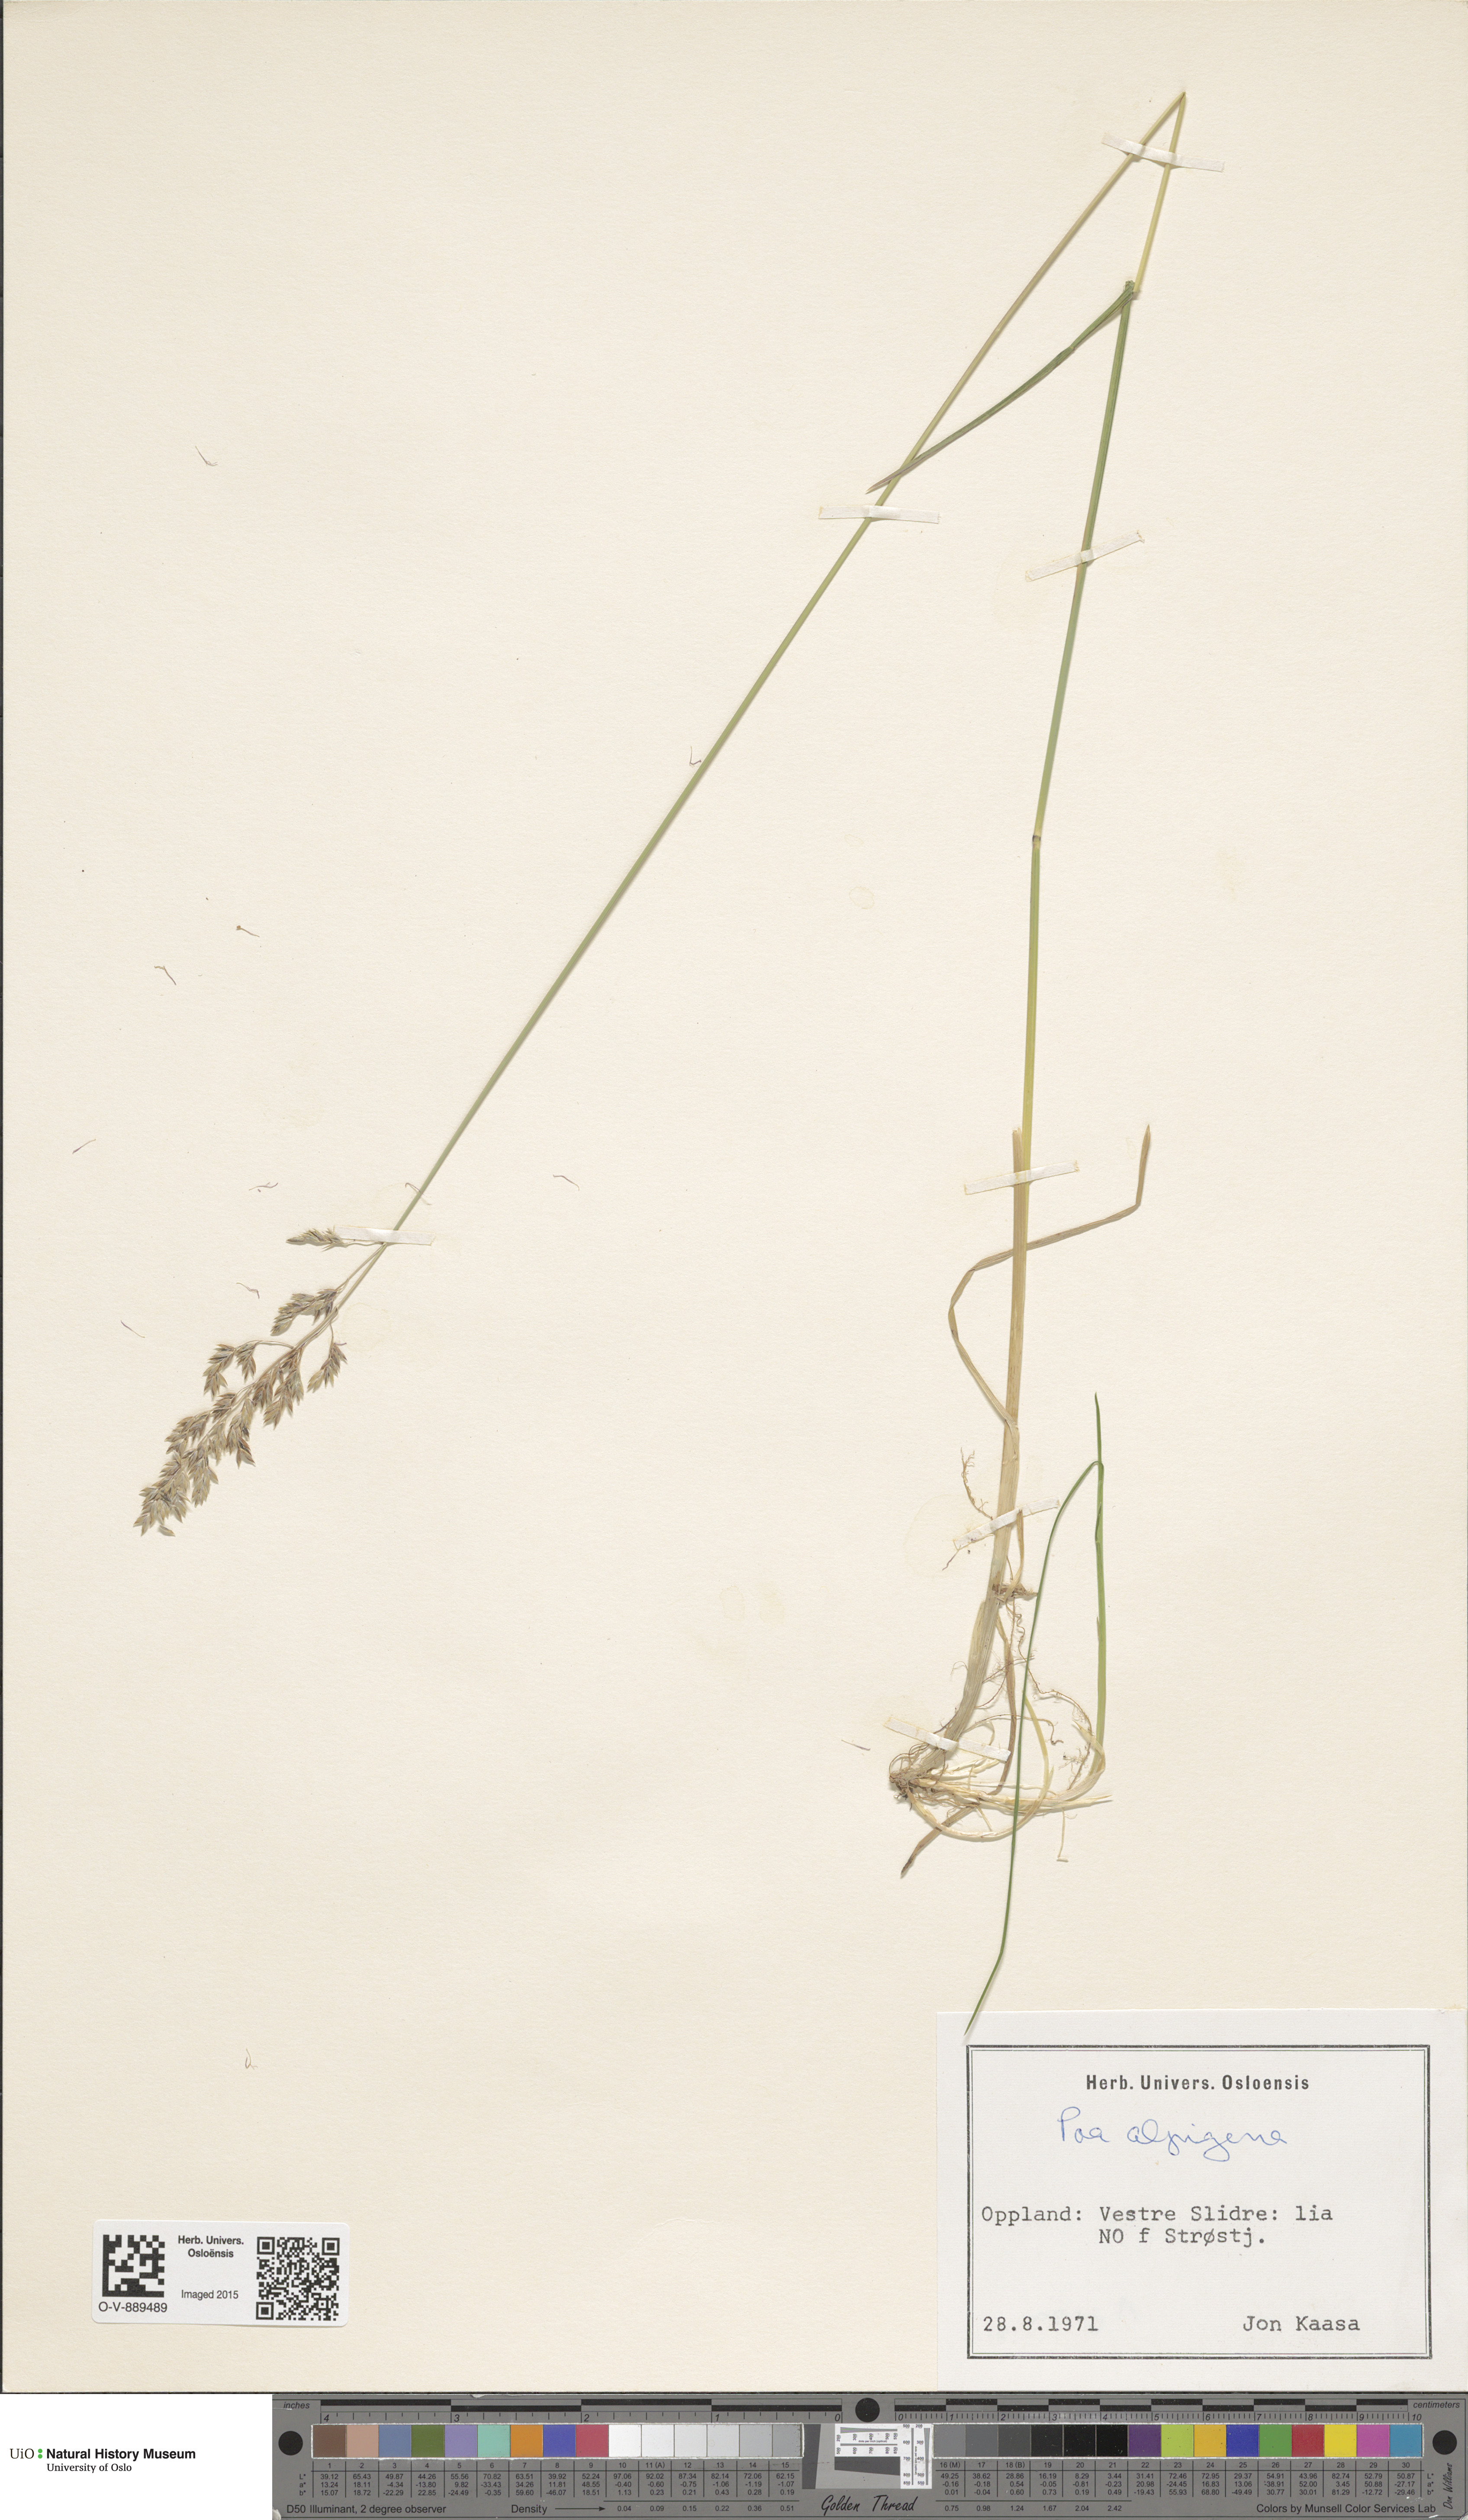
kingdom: Plantae
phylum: Tracheophyta
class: Liliopsida
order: Poales
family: Poaceae
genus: Poa
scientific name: Poa alpigena
